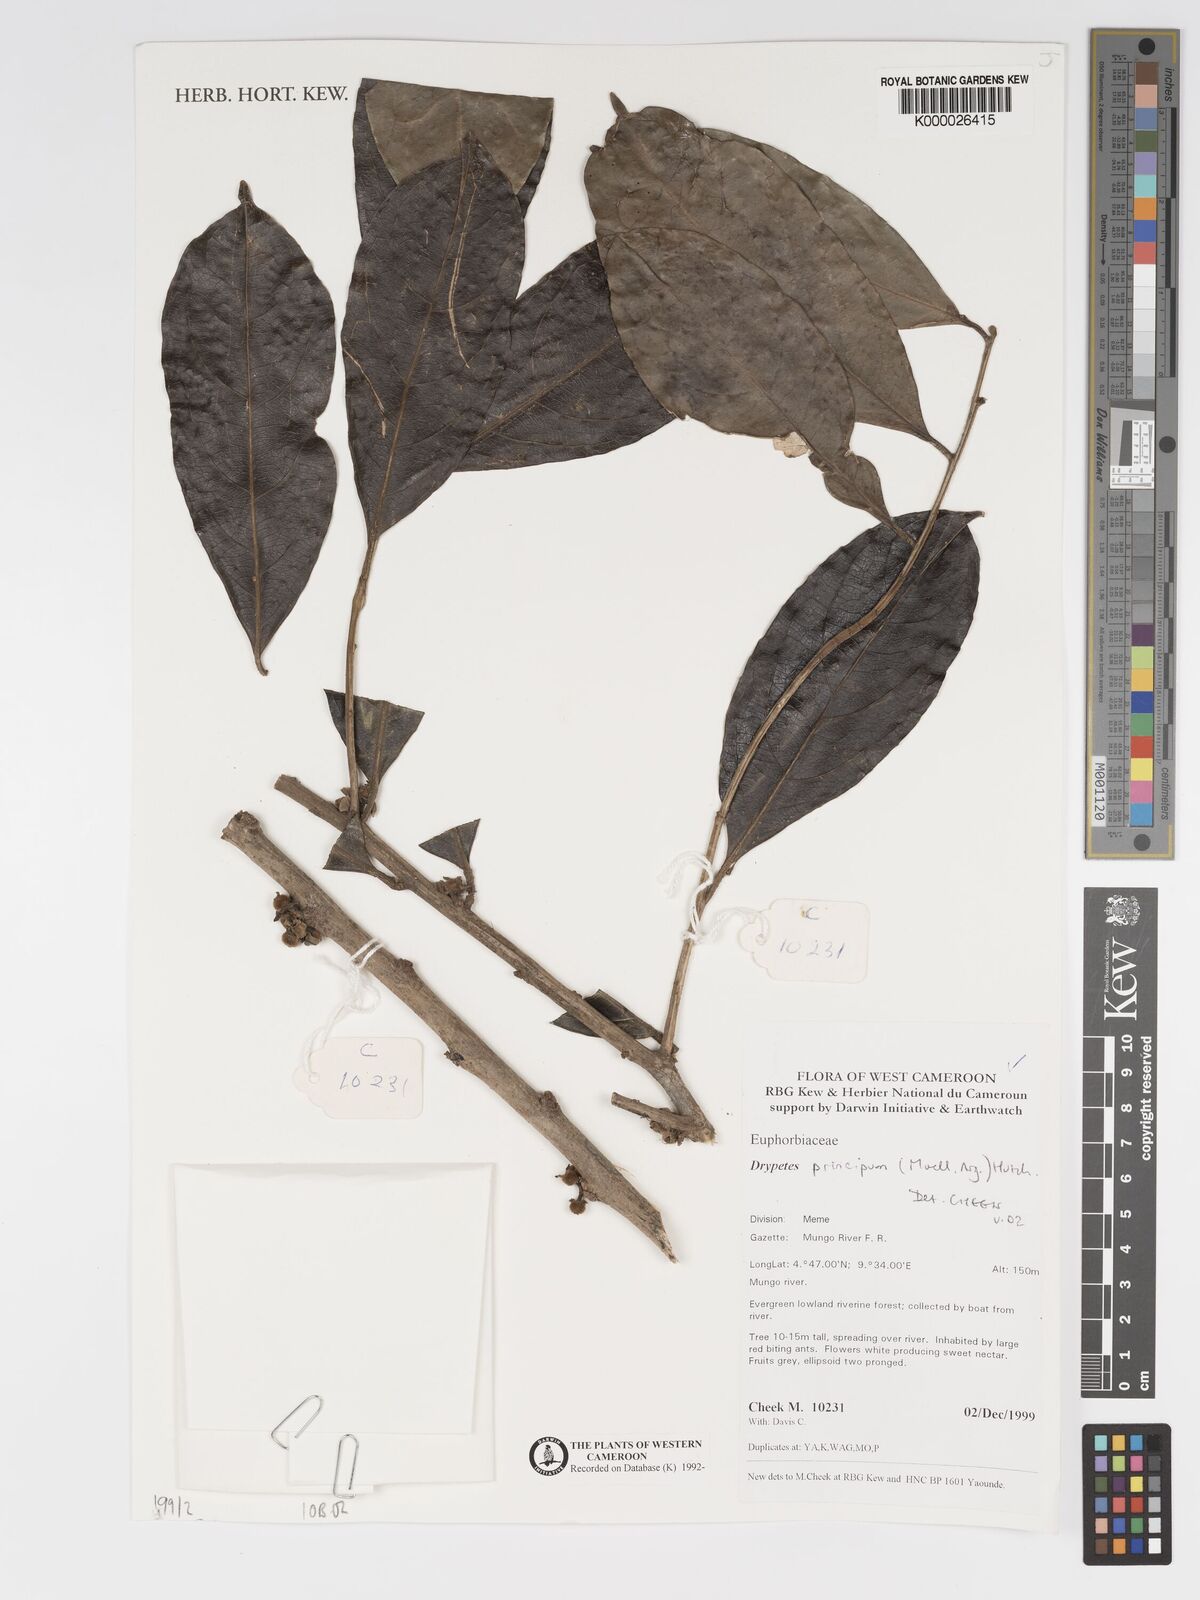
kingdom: Plantae
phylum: Tracheophyta
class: Magnoliopsida
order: Malpighiales
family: Putranjivaceae
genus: Drypetes
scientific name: Drypetes
